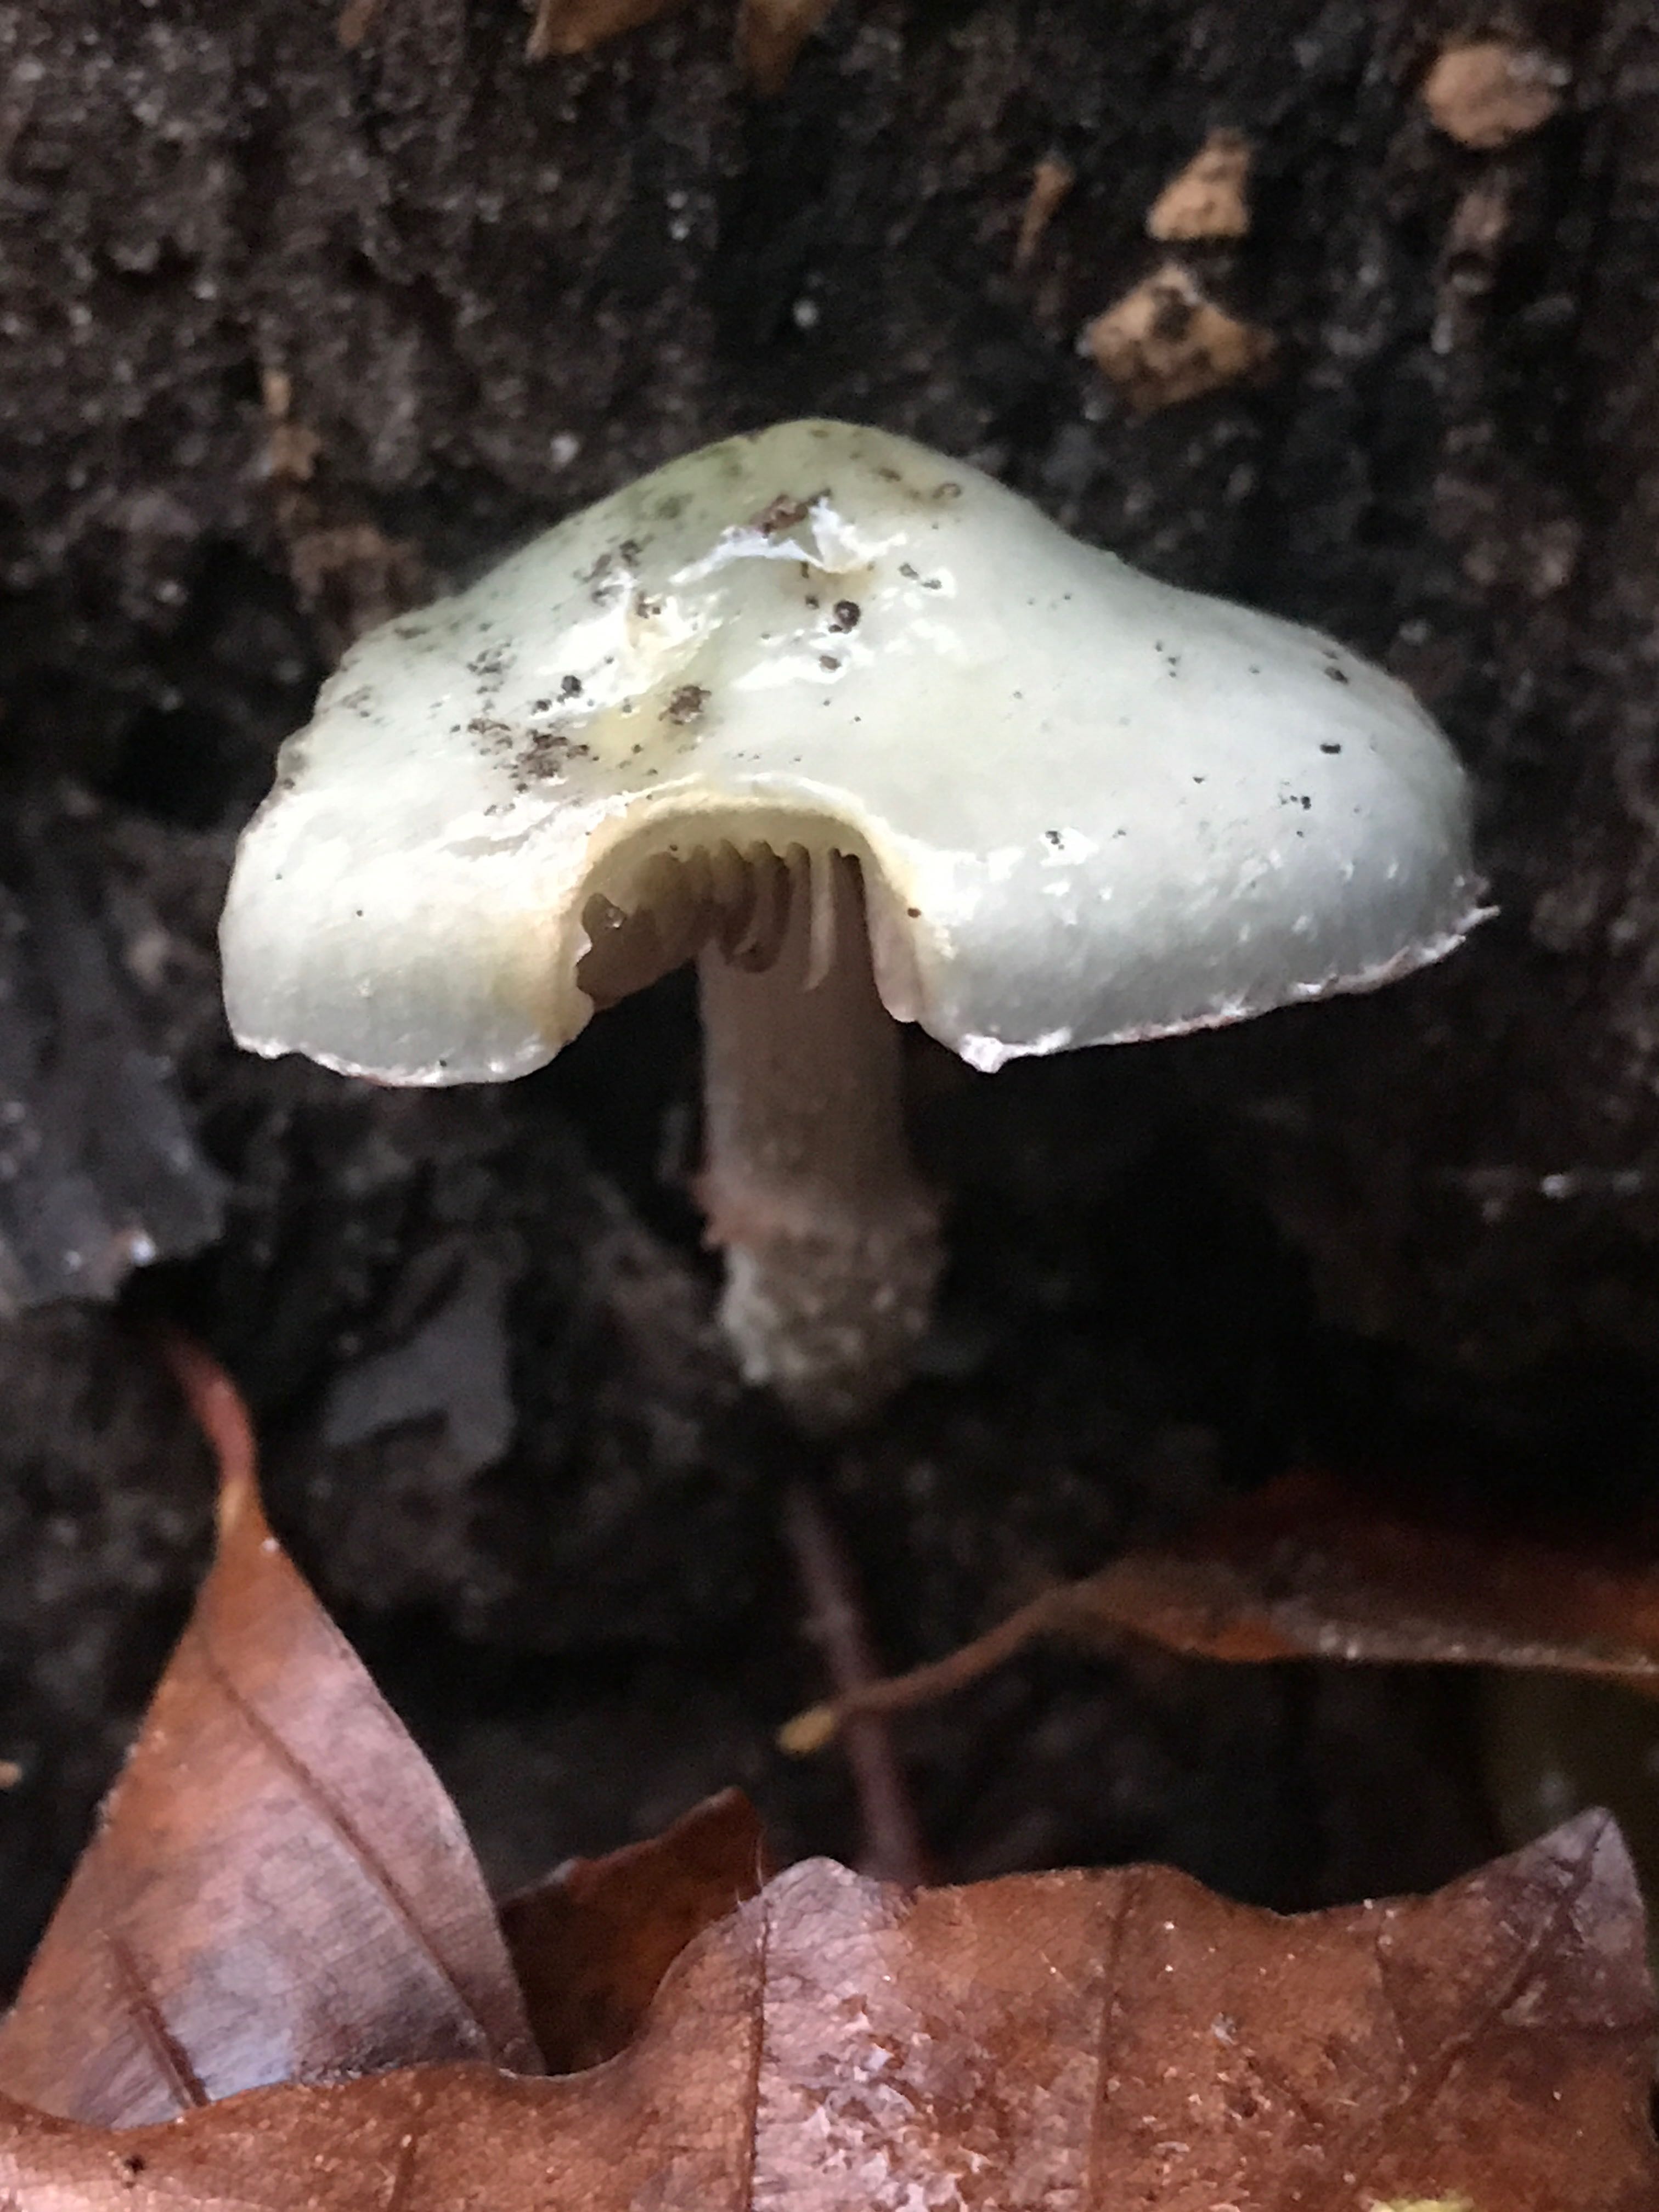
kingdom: Fungi
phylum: Basidiomycota
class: Agaricomycetes
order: Agaricales
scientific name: Agaricales
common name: champignonordenen
